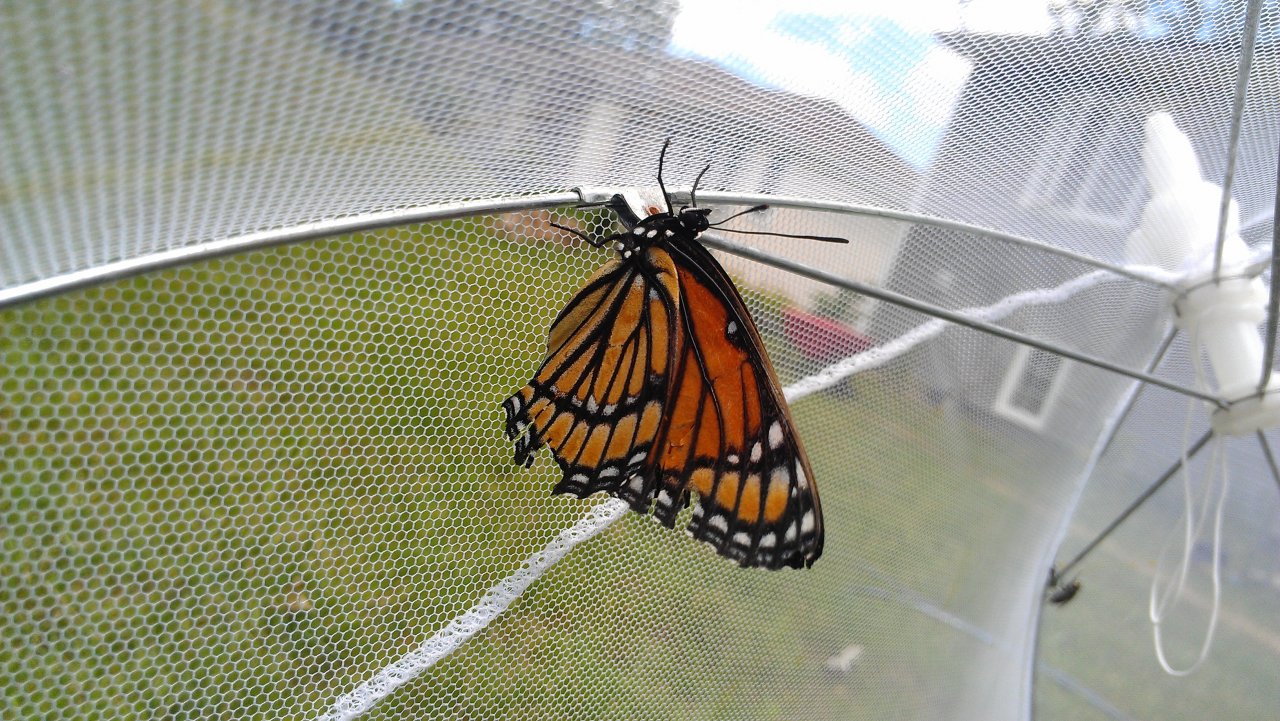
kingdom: Animalia
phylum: Arthropoda
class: Insecta
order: Lepidoptera
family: Nymphalidae
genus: Limenitis
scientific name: Limenitis archippus
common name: Viceroy
